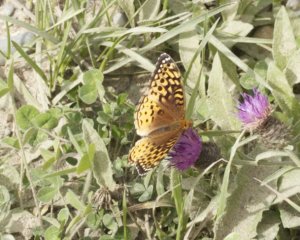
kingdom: Animalia
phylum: Arthropoda
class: Insecta
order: Lepidoptera
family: Nymphalidae
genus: Speyeria
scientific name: Speyeria cybele
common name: Great Spangled Fritillary
